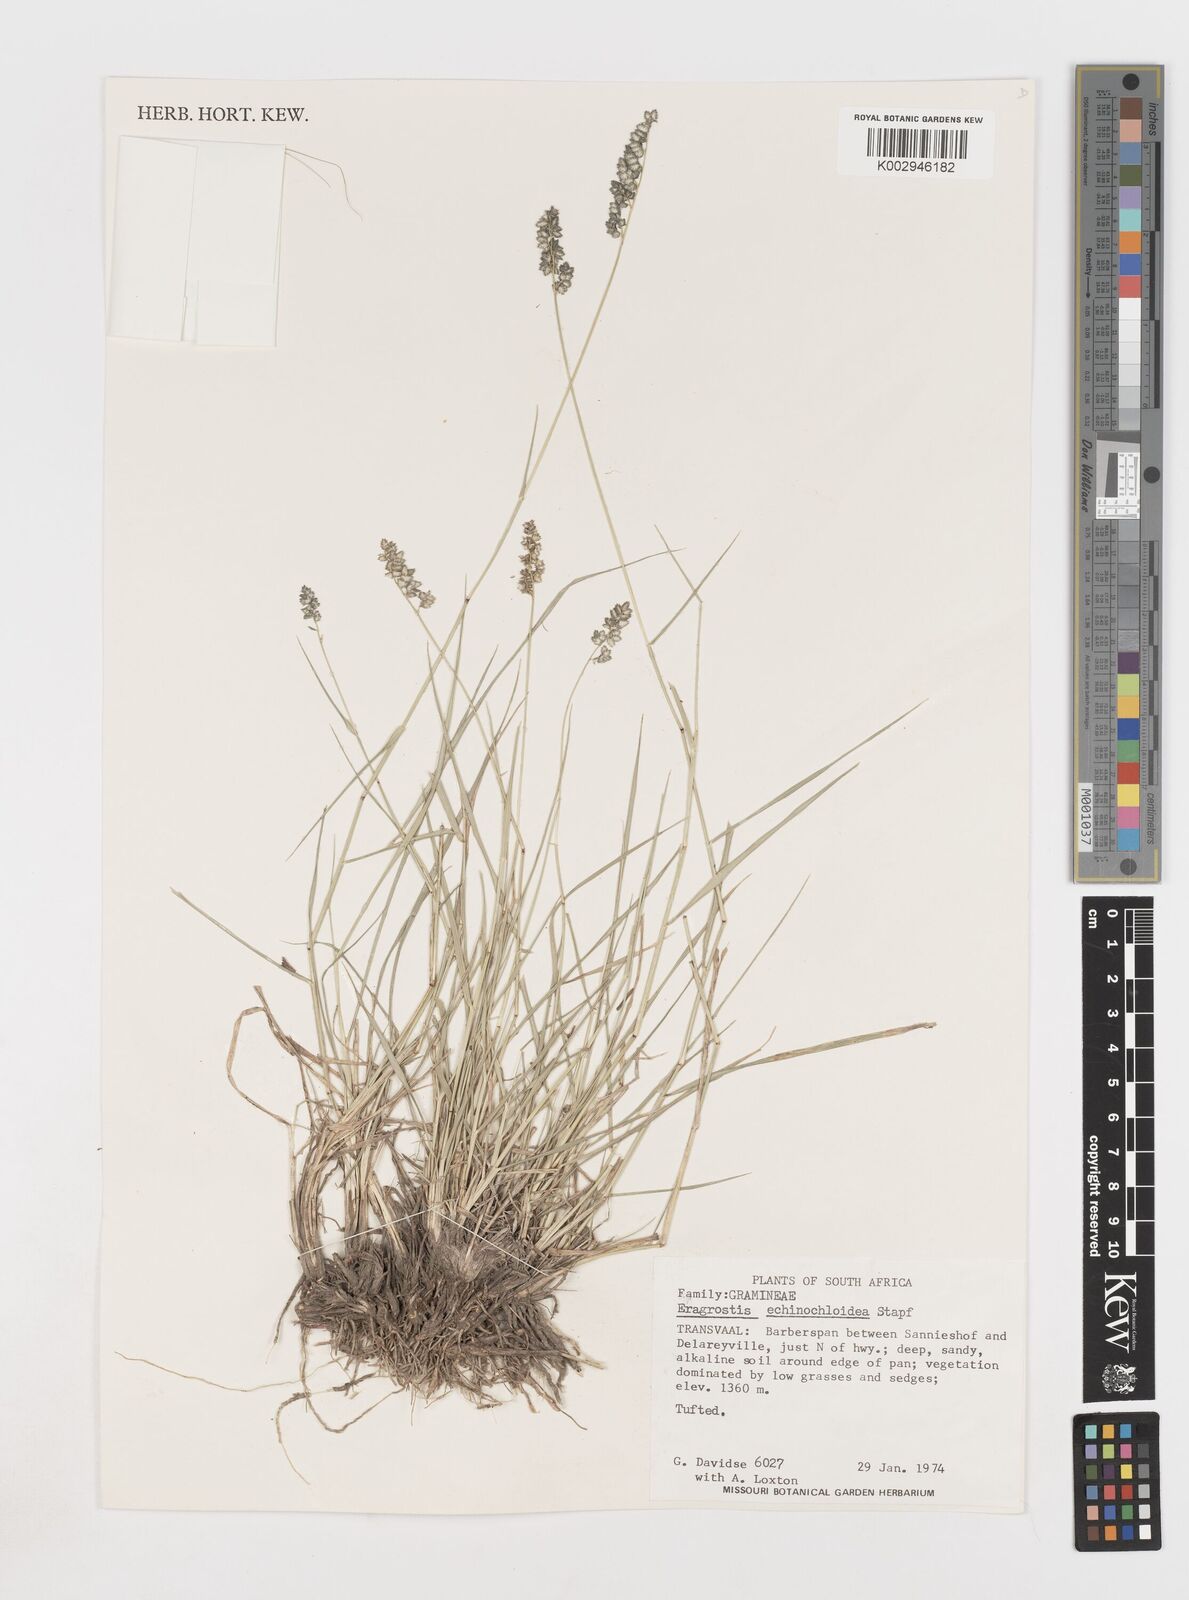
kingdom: Plantae
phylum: Tracheophyta
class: Liliopsida
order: Poales
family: Poaceae
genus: Eragrostis
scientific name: Eragrostis echinochloidea
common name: African lovegrass
